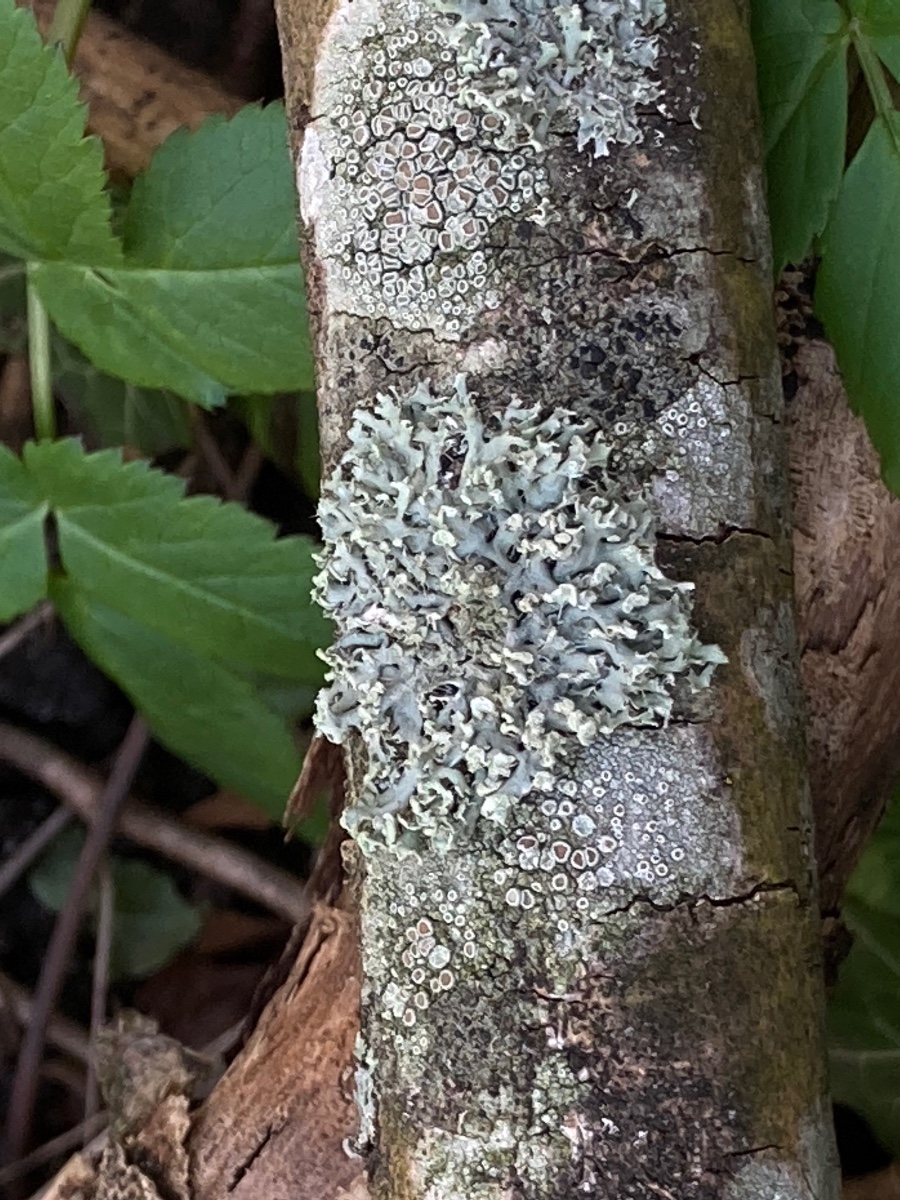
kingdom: Fungi
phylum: Ascomycota
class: Lecanoromycetes
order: Caliciales
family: Physciaceae
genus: Physcia
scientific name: Physcia tenella
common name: spæd rosetlav
